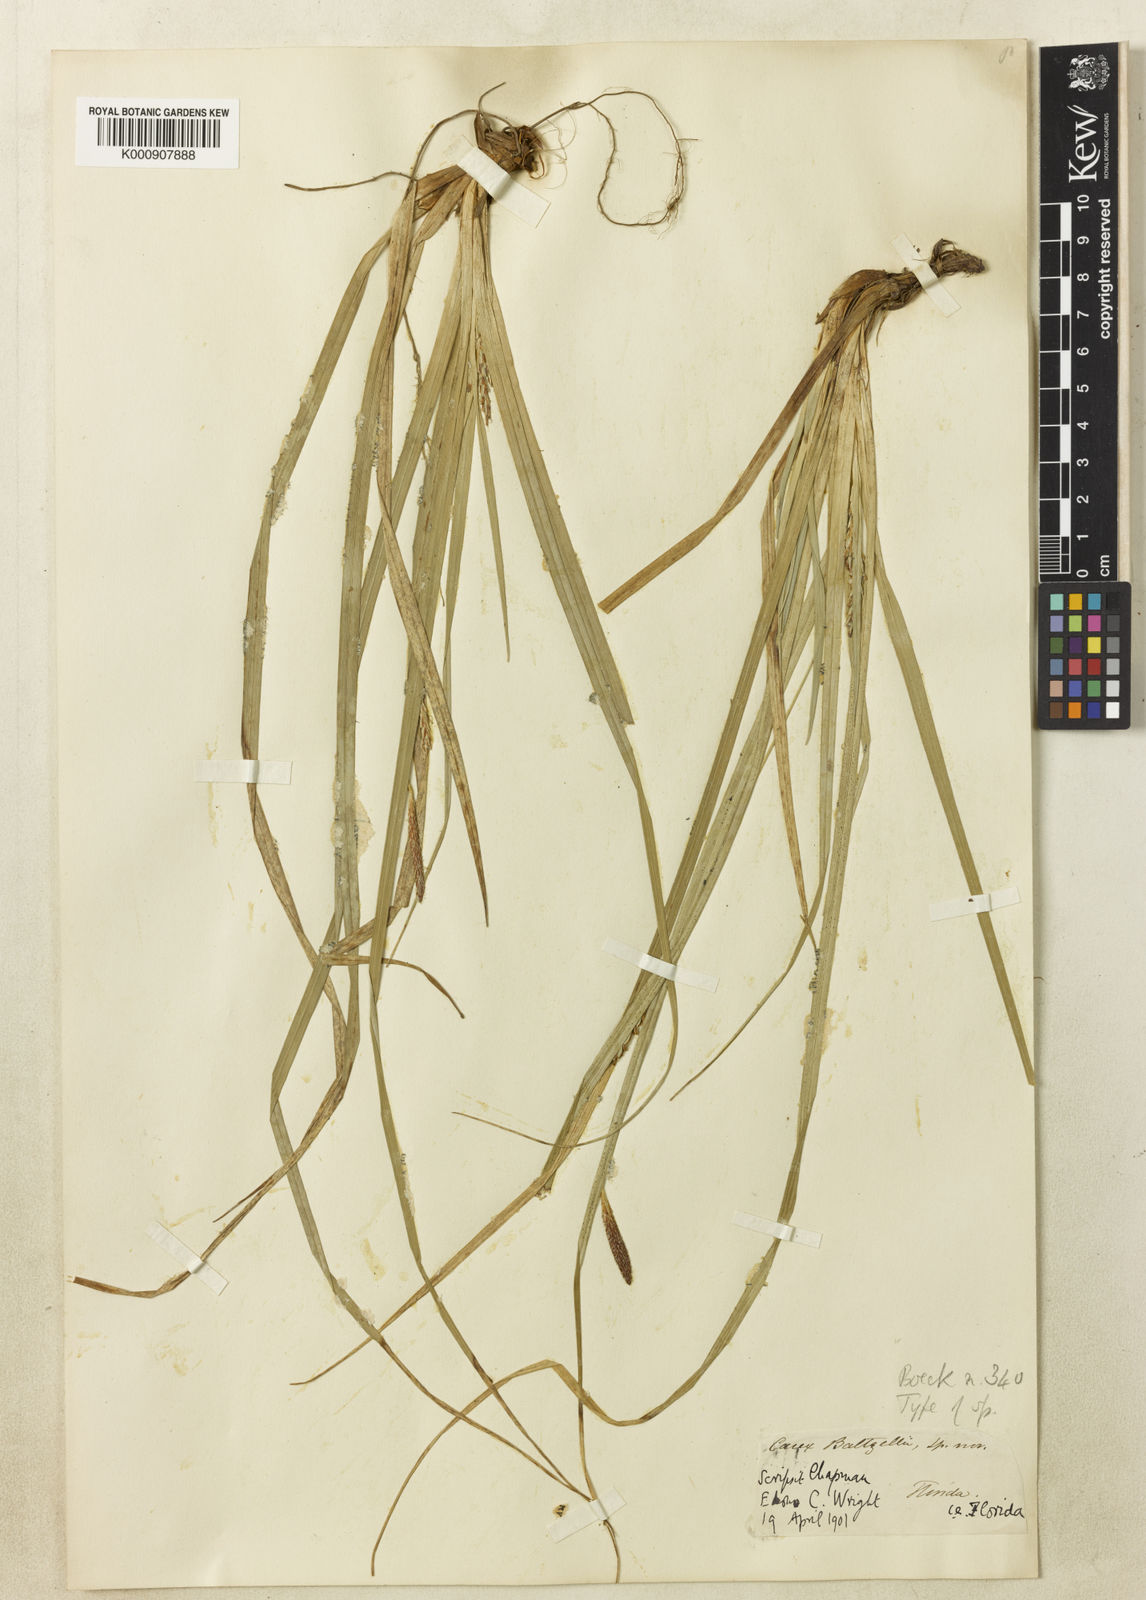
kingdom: Plantae
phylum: Tracheophyta
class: Liliopsida
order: Poales
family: Cyperaceae
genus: Carex
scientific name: Carex baltzellii
